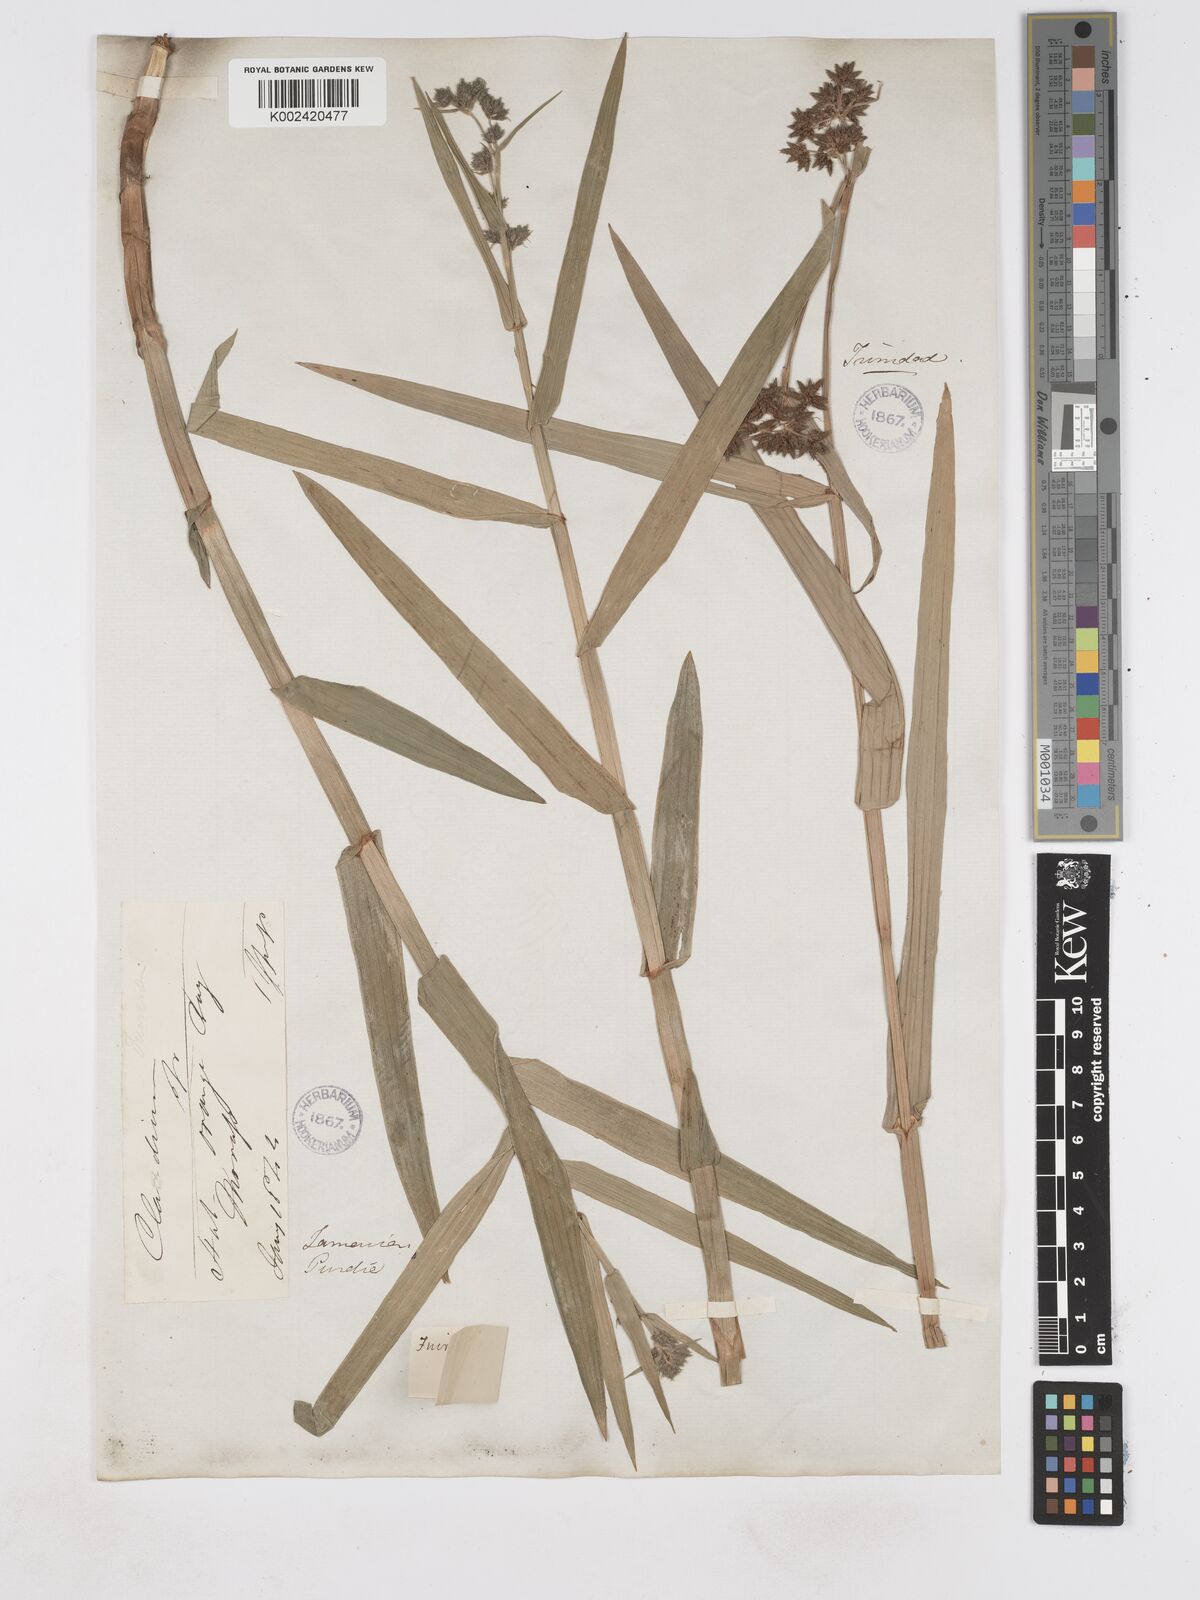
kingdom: Plantae
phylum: Tracheophyta
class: Liliopsida
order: Poales
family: Cyperaceae
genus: Fuirena
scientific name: Fuirena umbellata
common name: Yefen
